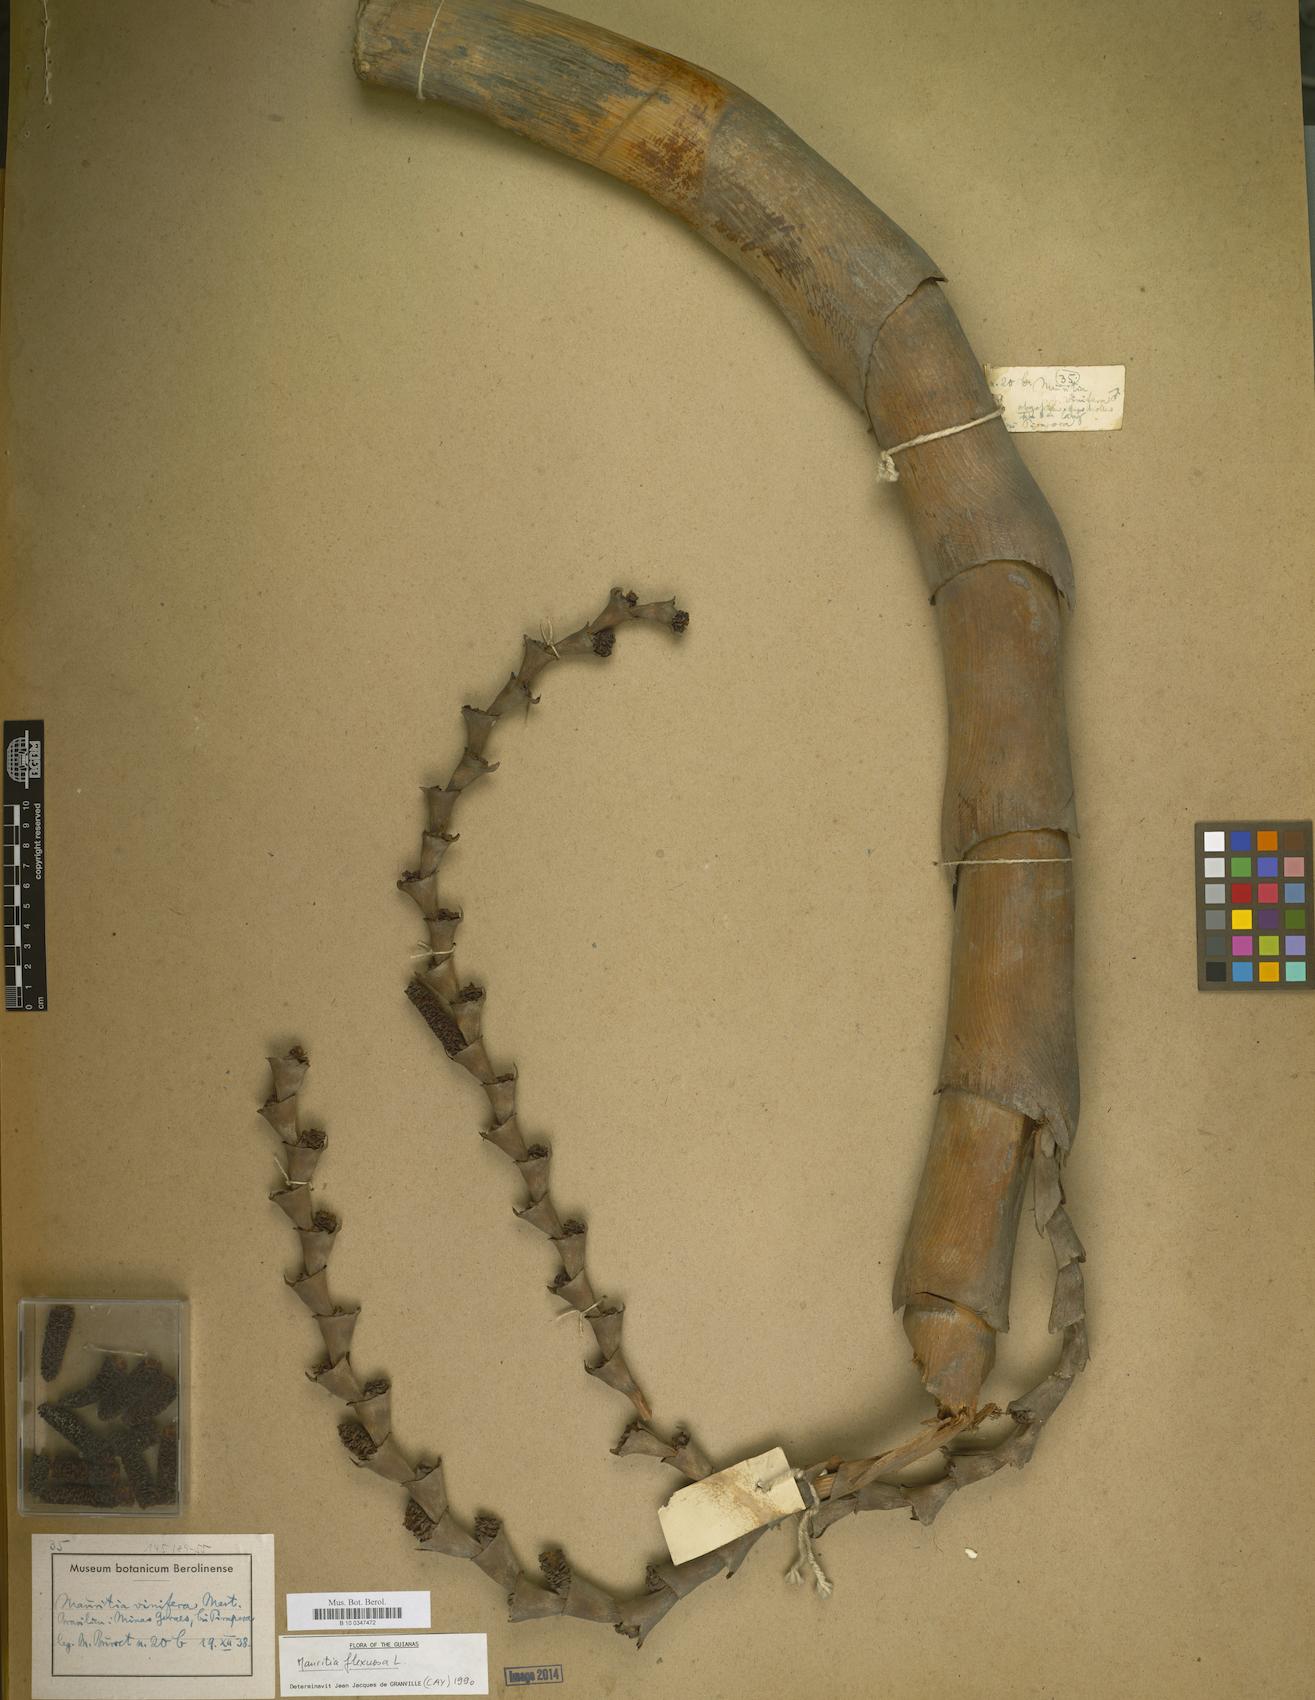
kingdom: Plantae
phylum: Tracheophyta
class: Liliopsida
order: Arecales
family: Arecaceae
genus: Mauritia
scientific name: Mauritia flexuosa
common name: Tree-of-life
